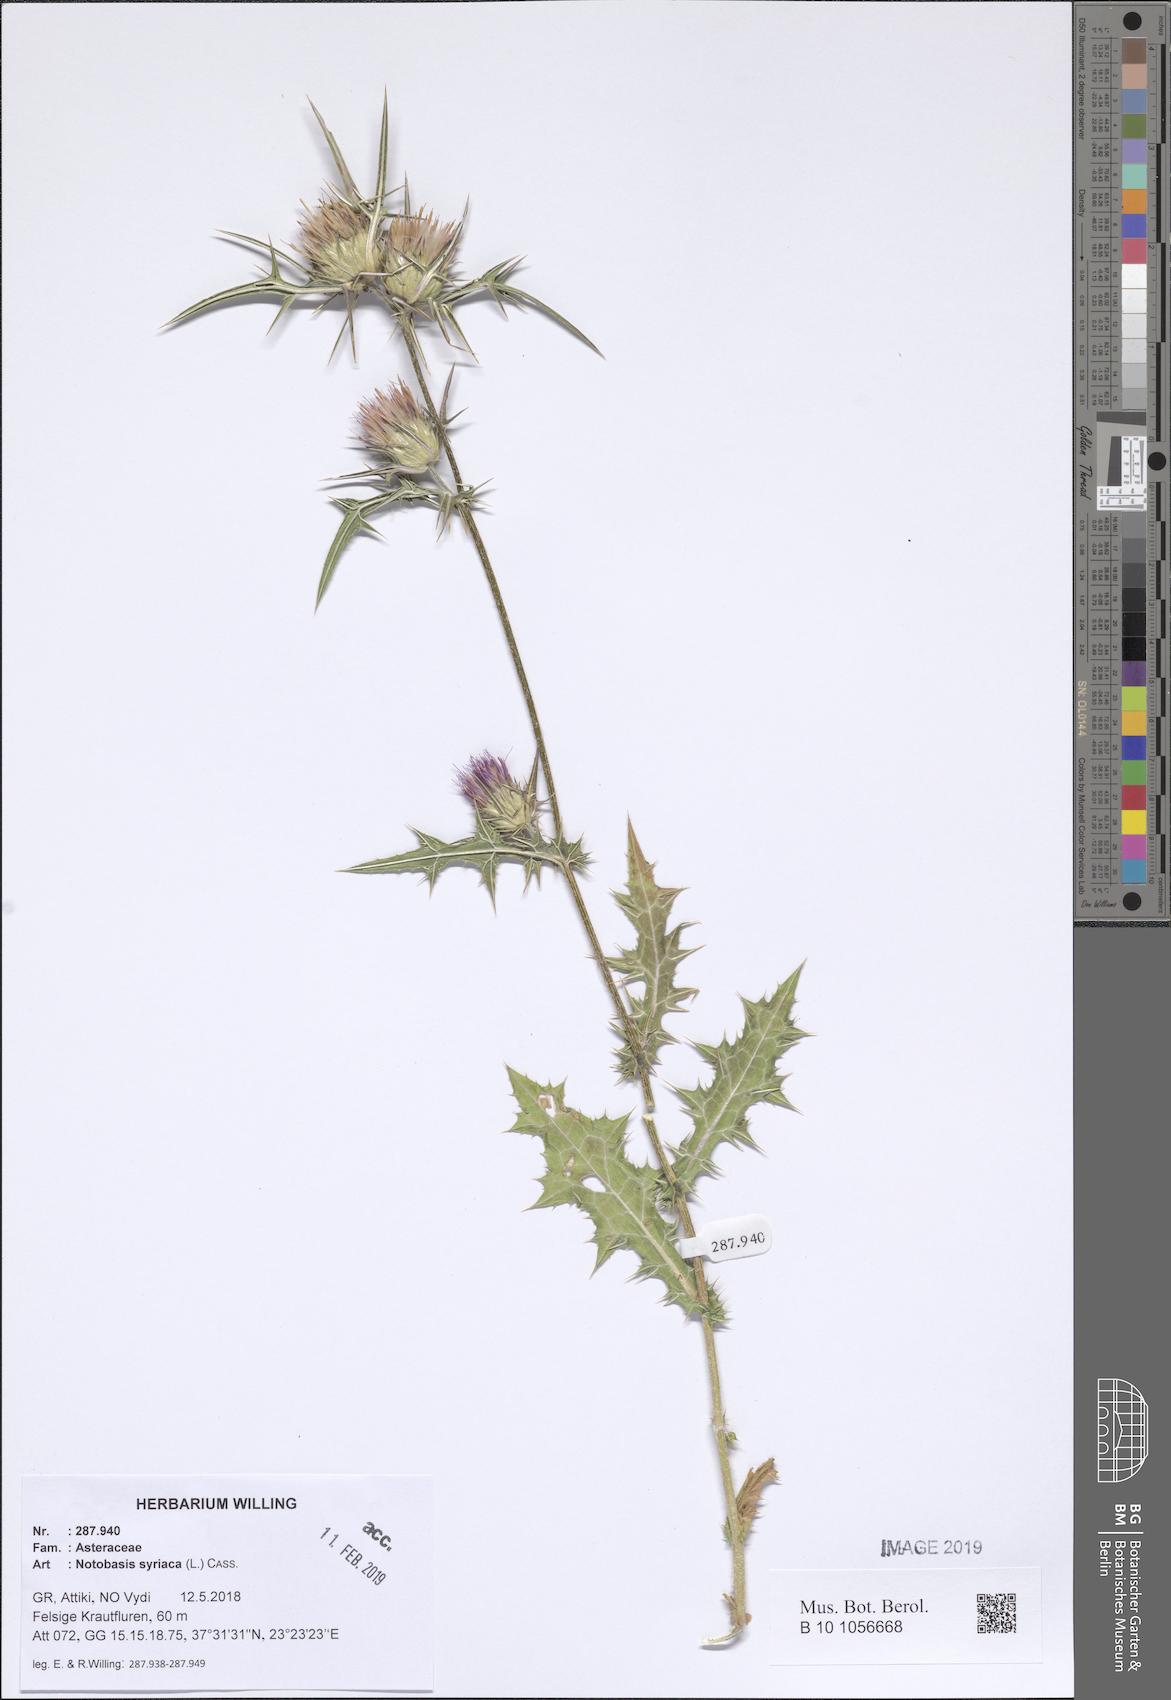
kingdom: Plantae
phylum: Tracheophyta
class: Magnoliopsida
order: Asterales
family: Asteraceae
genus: Notobasis
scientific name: Notobasis syriaca
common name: Syrian thistle
